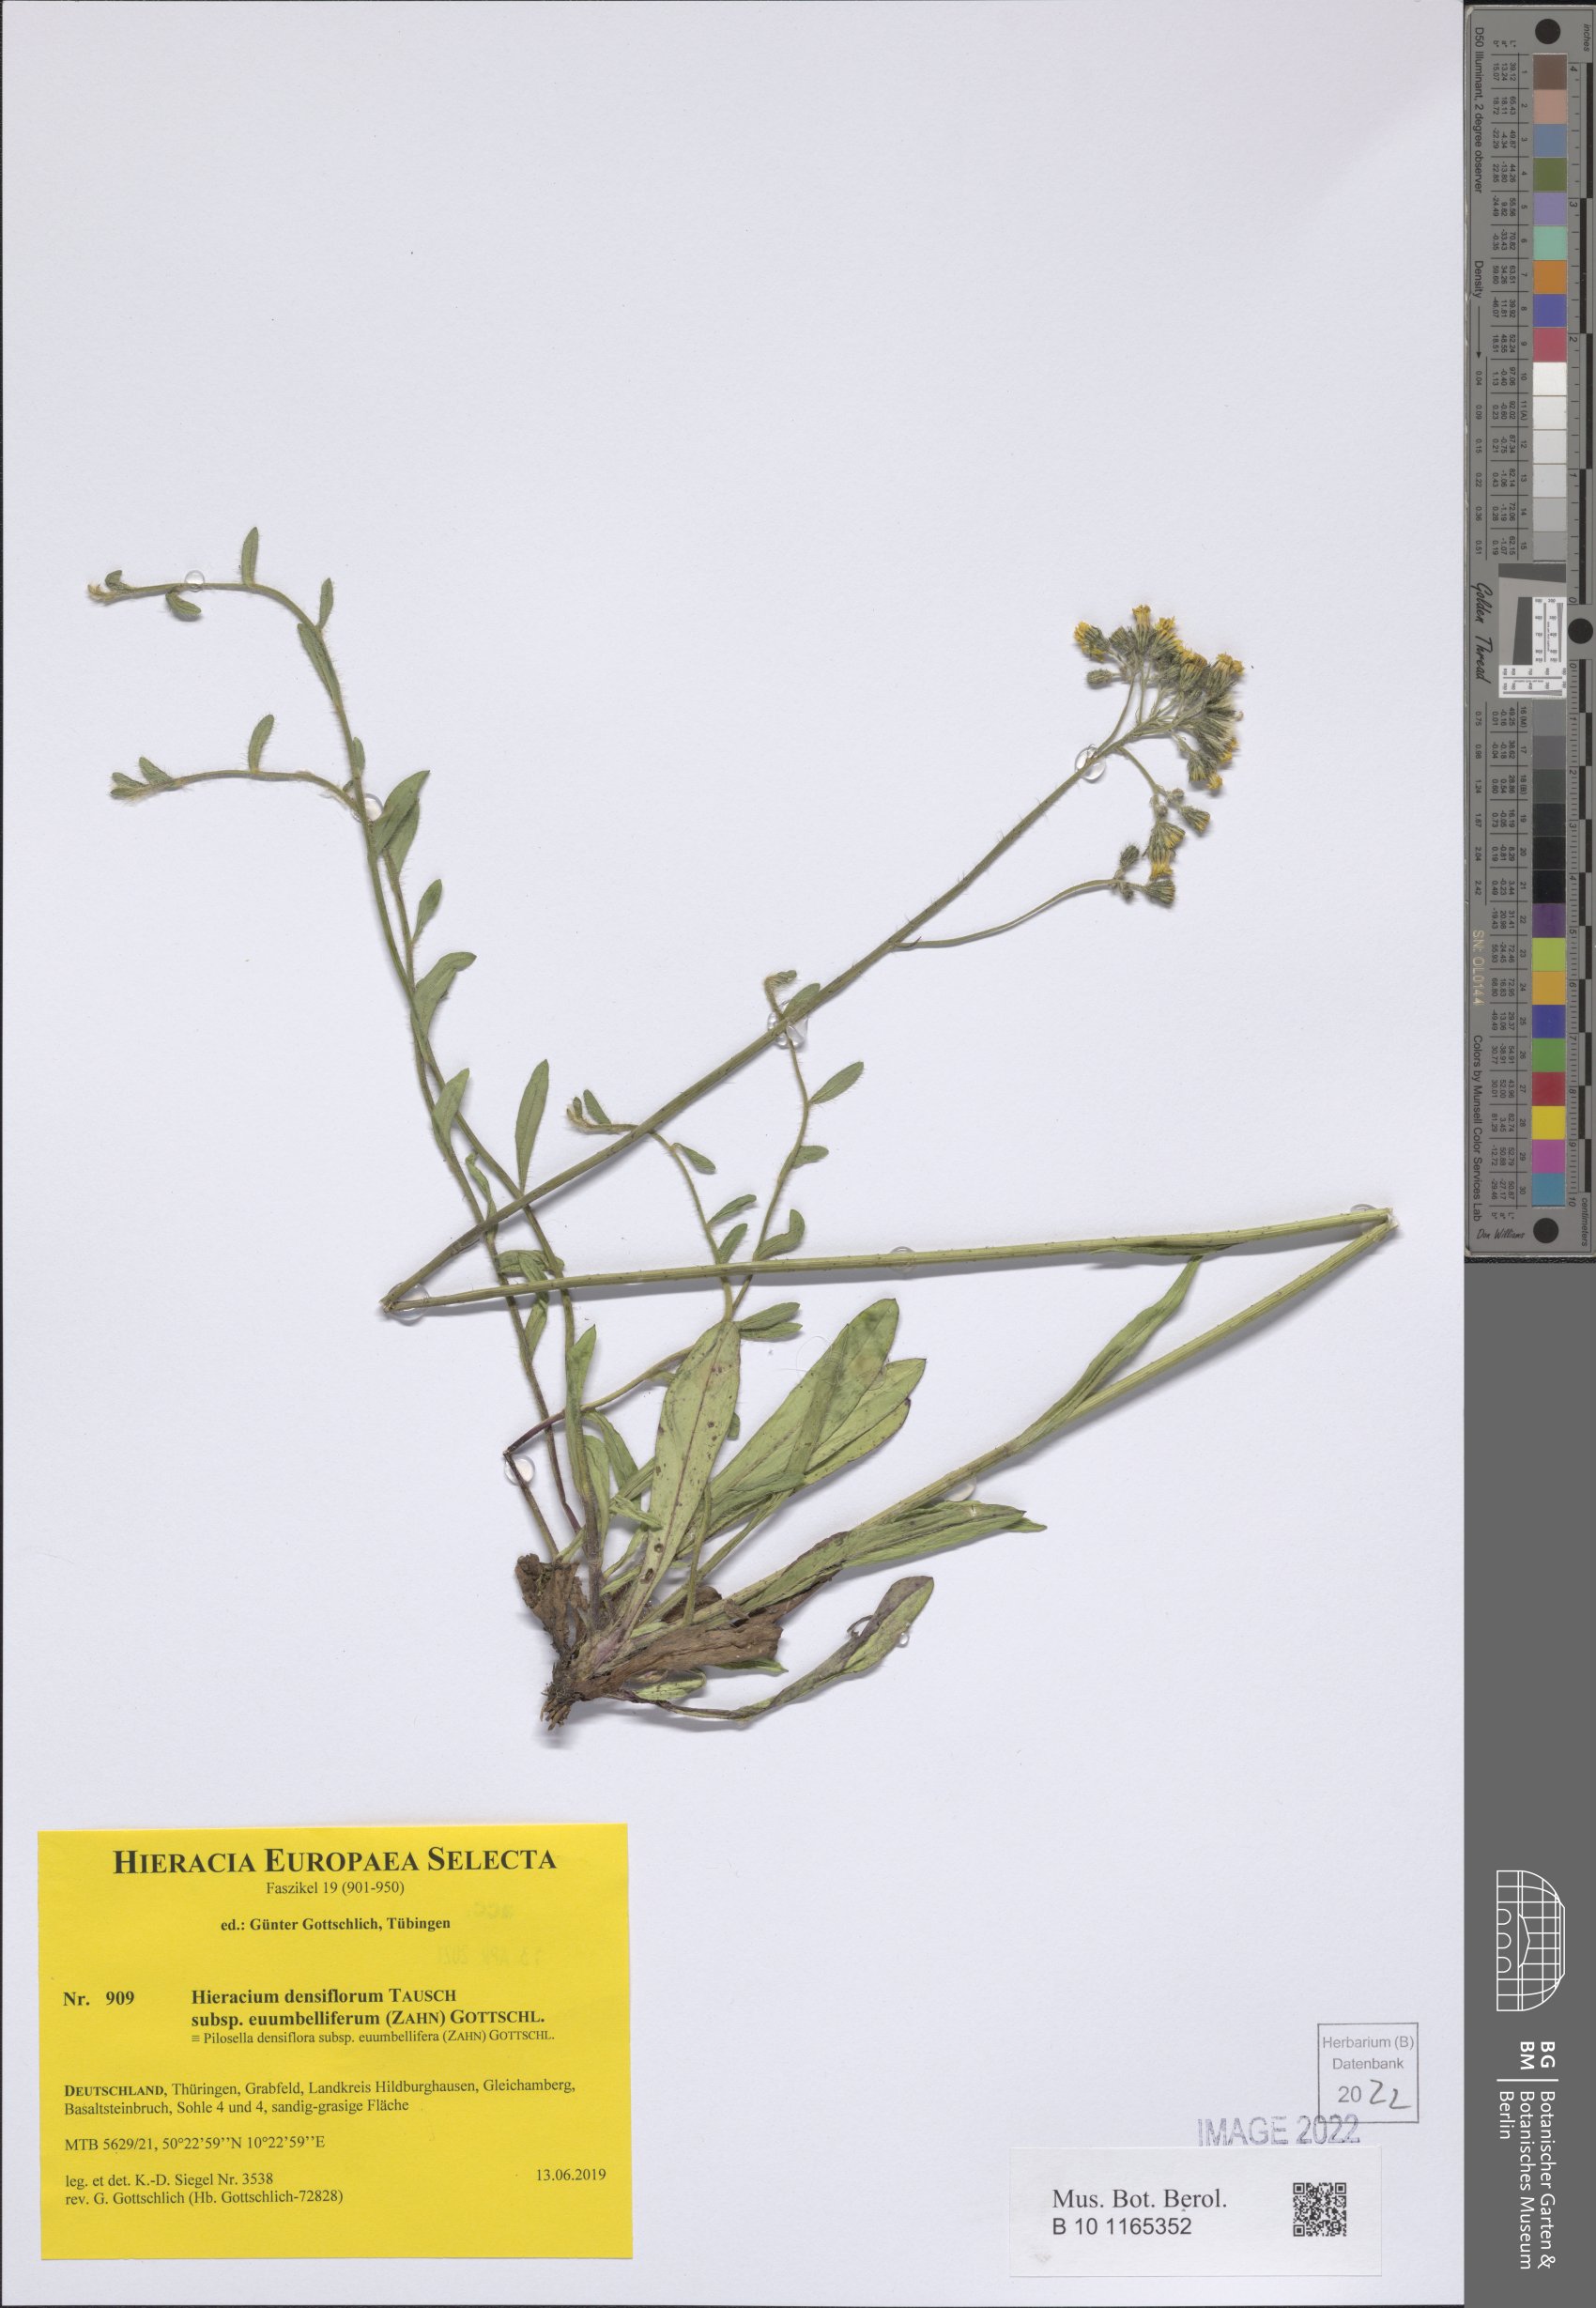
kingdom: Plantae
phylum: Tracheophyta
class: Magnoliopsida
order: Asterales
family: Asteraceae
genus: Pilosella
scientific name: Pilosella densiflora
